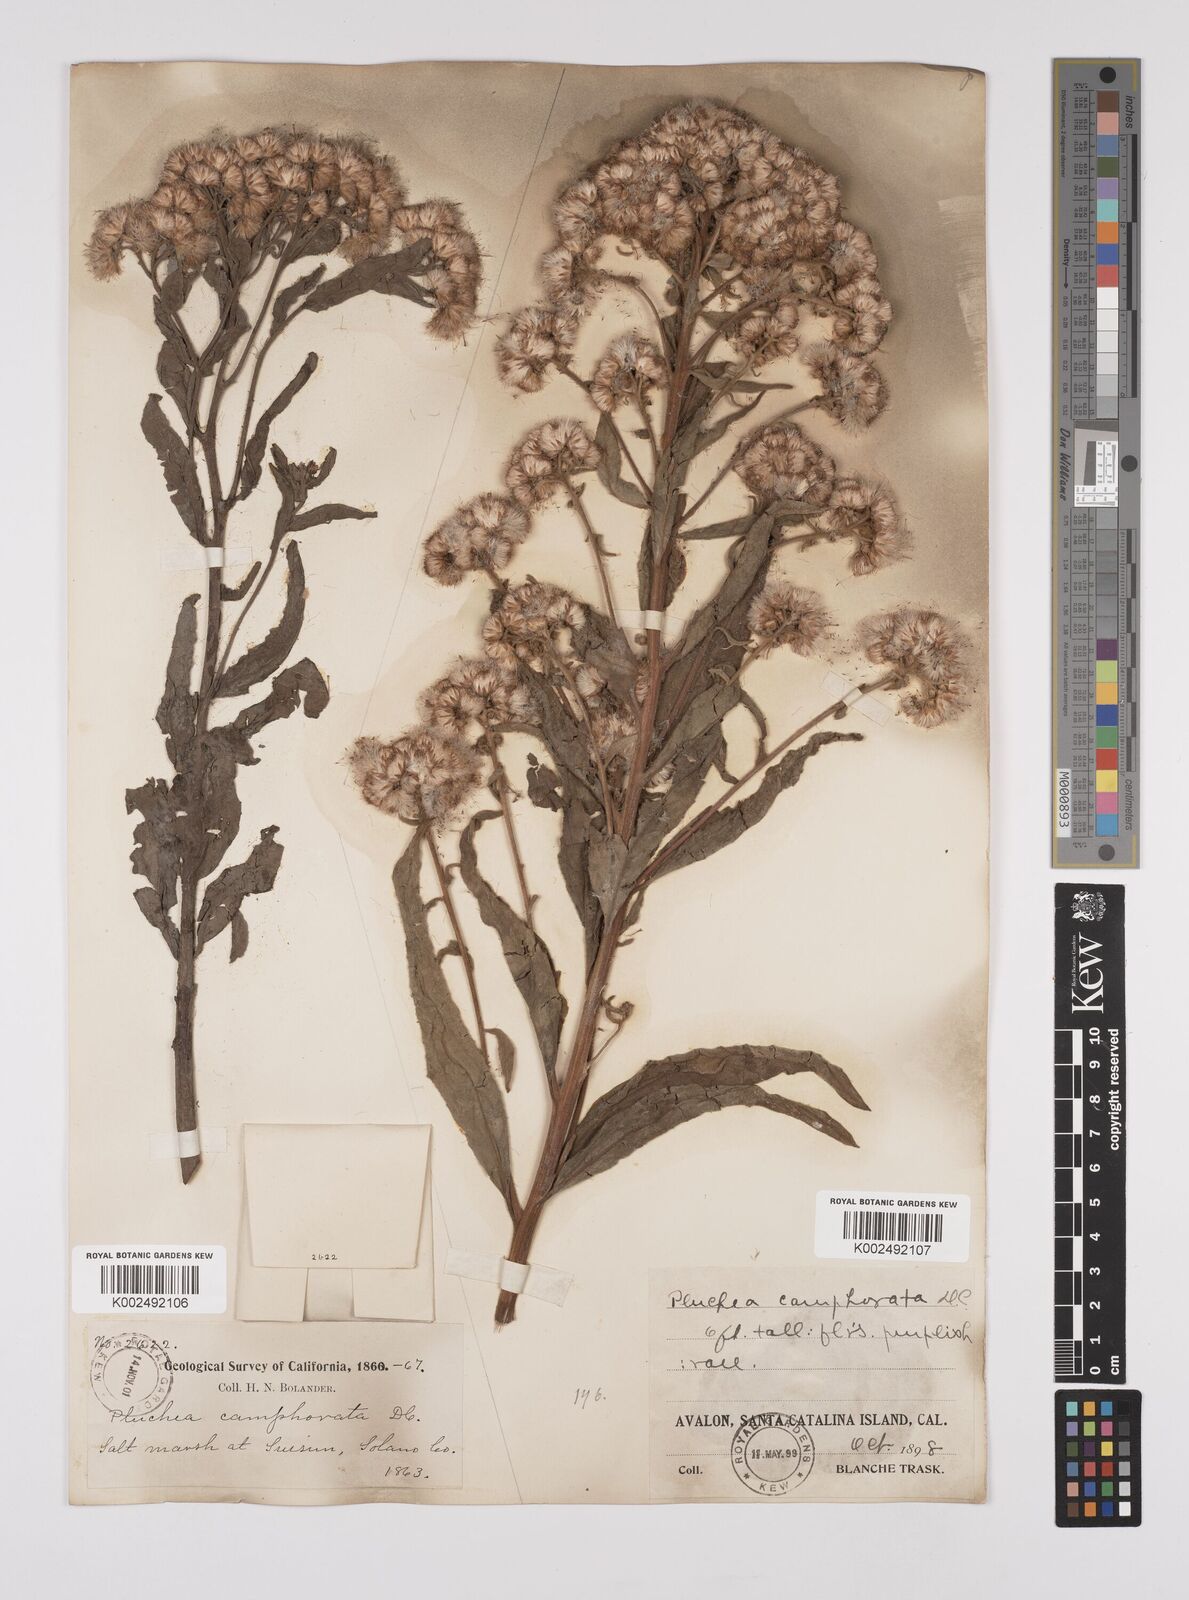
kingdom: Plantae
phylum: Tracheophyta
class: Magnoliopsida
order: Asterales
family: Asteraceae
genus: Pluchea
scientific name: Pluchea
